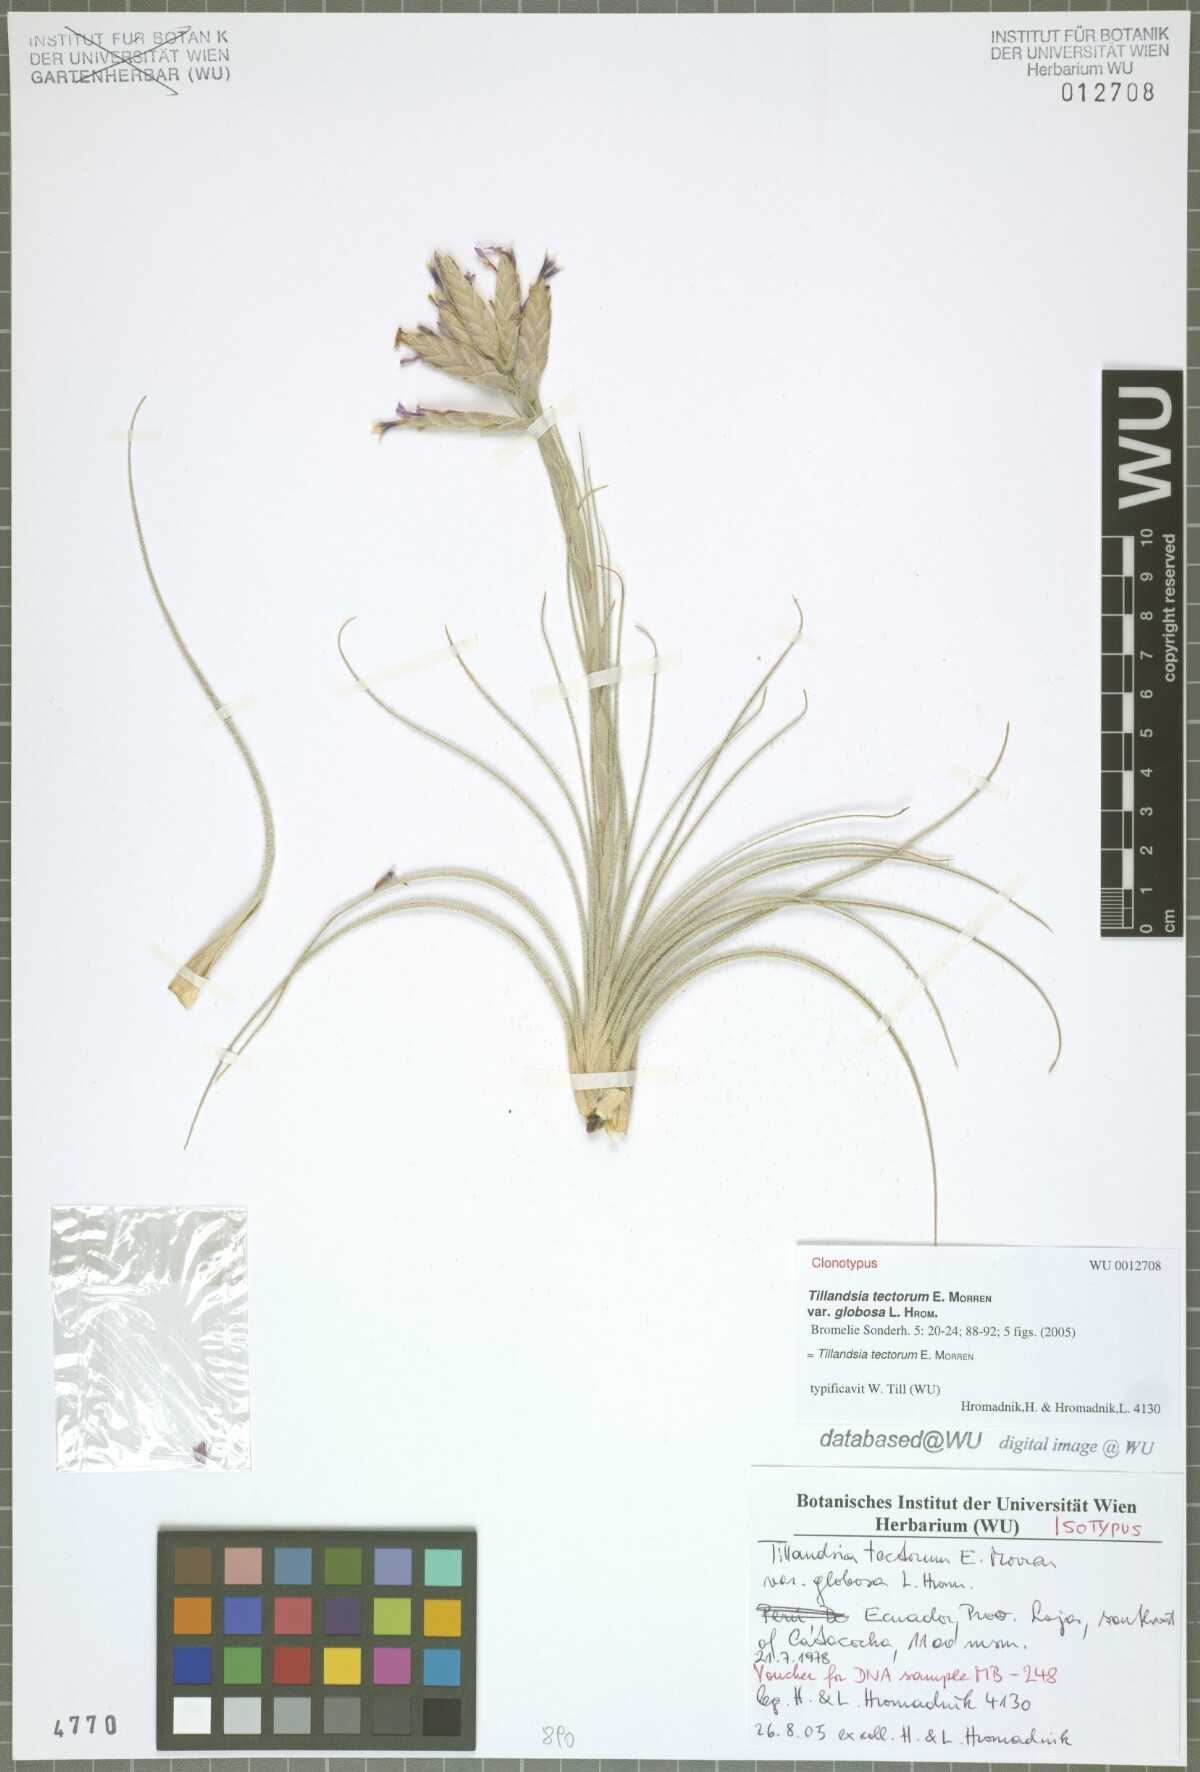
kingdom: Plantae
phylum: Tracheophyta
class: Liliopsida
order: Poales
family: Bromeliaceae
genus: Tillandsia
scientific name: Tillandsia tectorum
